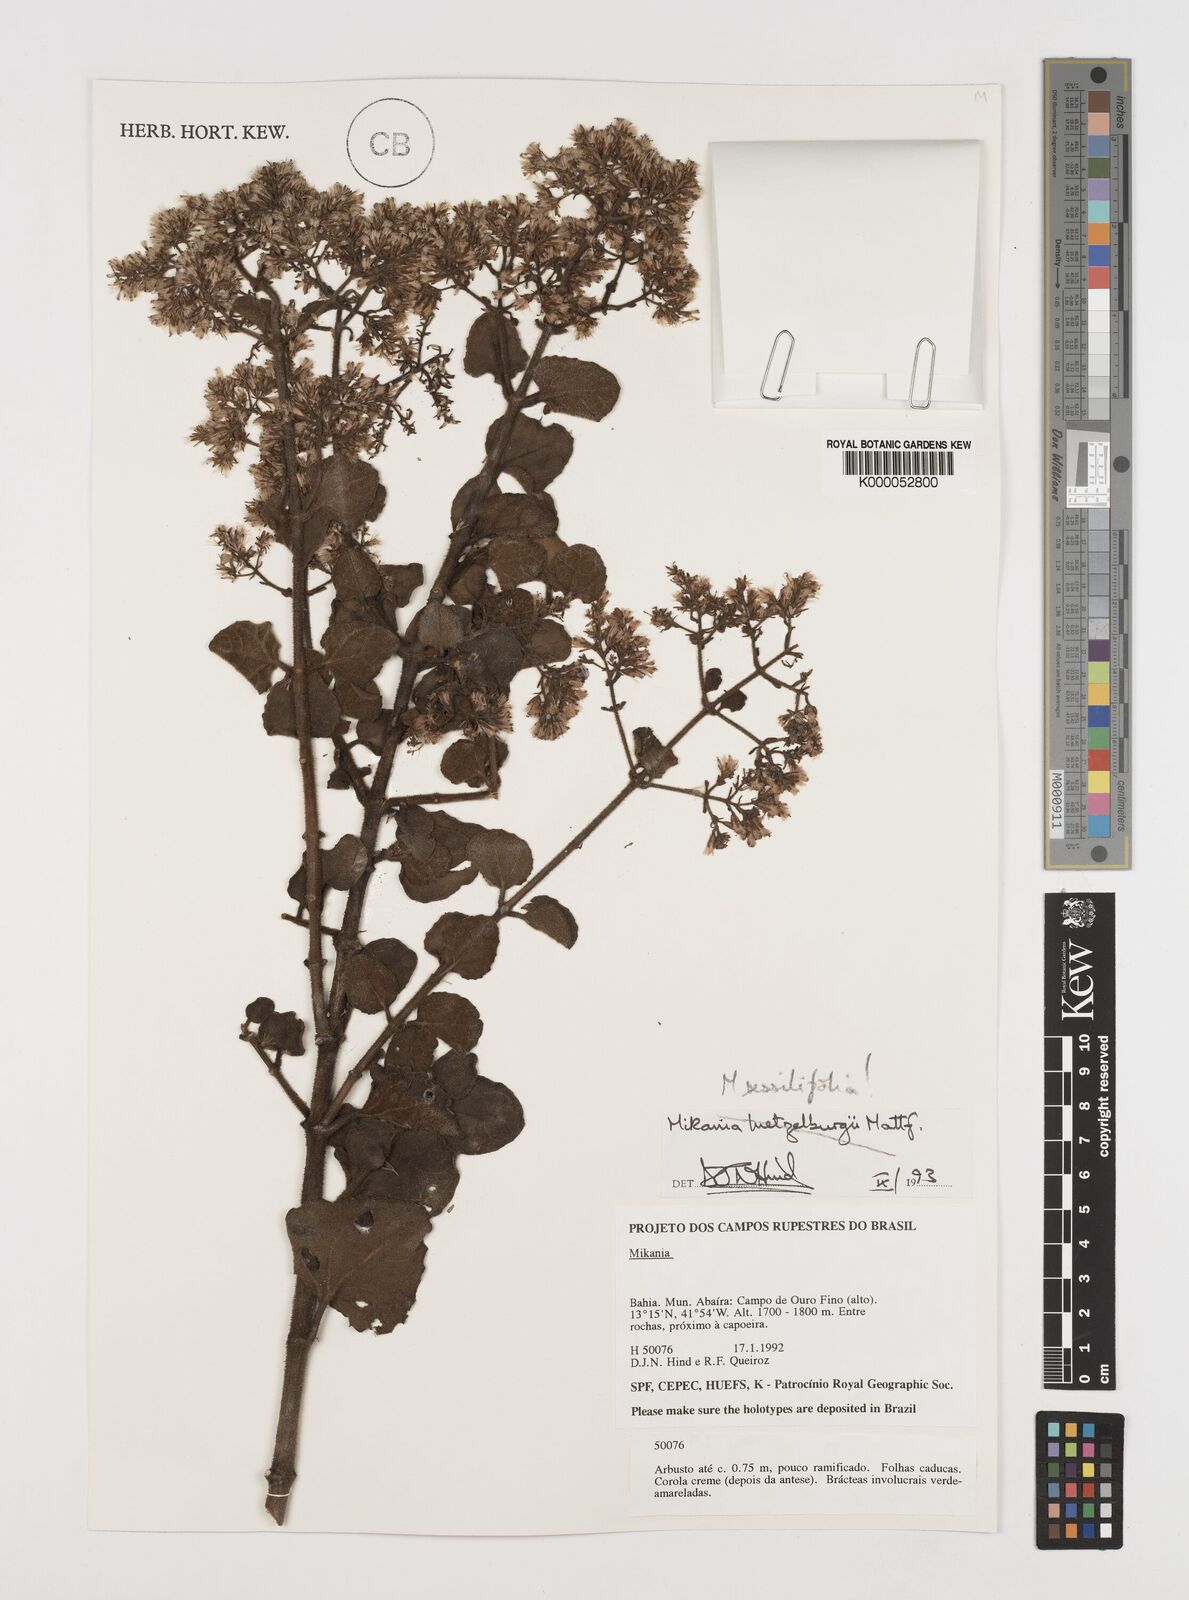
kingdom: Plantae
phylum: Tracheophyta
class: Magnoliopsida
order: Asterales
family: Asteraceae
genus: Mikania
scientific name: Mikania sessilifolia
